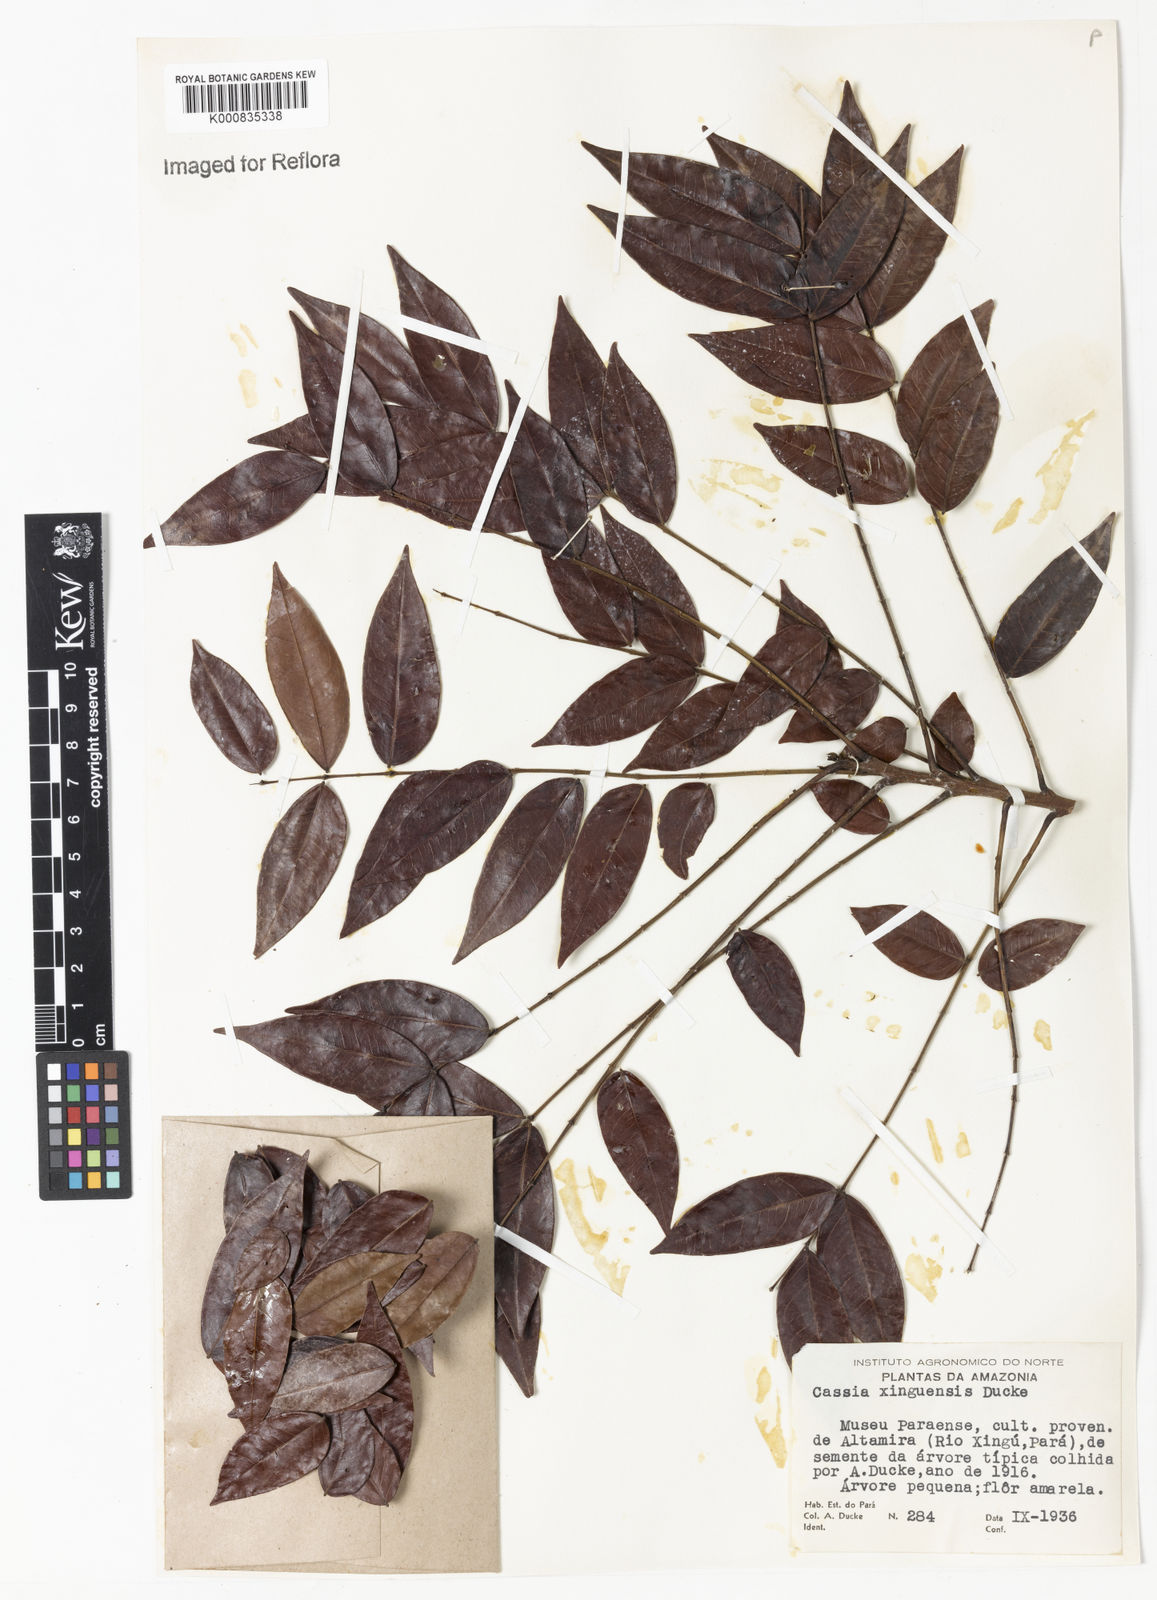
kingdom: Plantae
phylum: Tracheophyta
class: Magnoliopsida
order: Fabales
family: Fabaceae
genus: Chamaecrista
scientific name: Chamaecrista xinguensis
